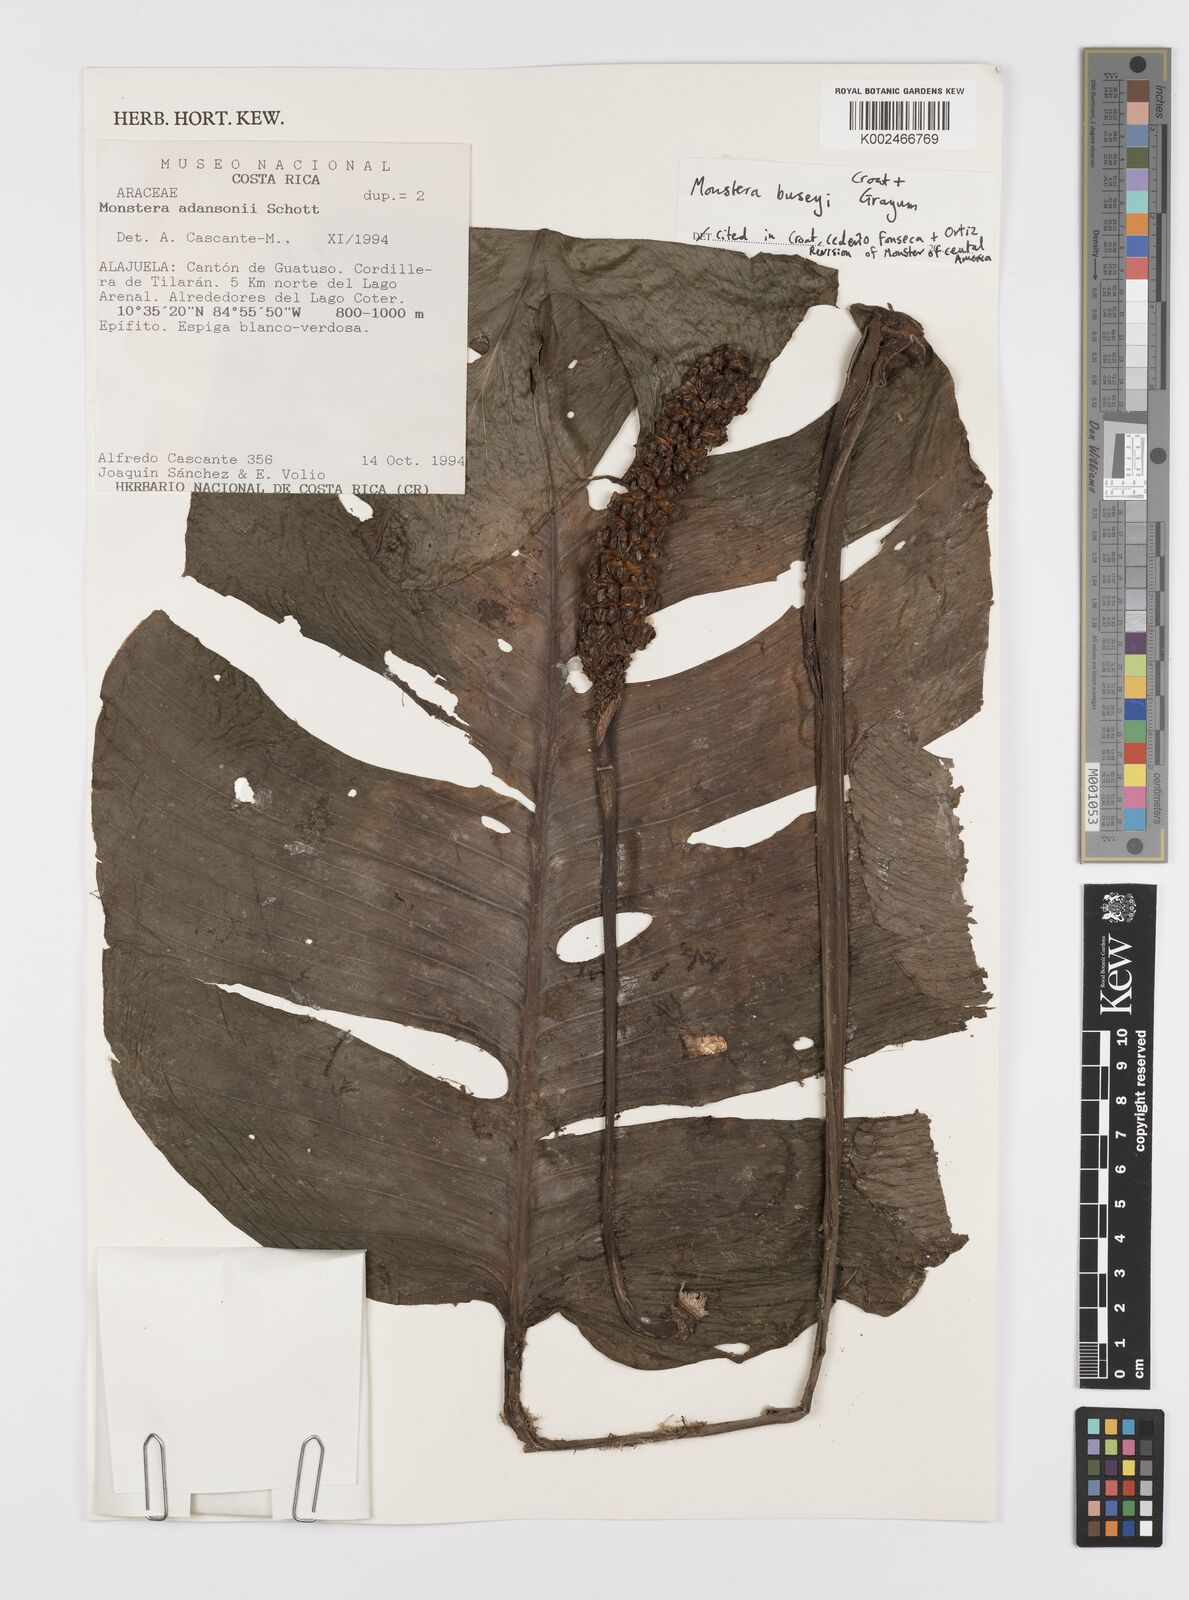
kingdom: Plantae
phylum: Tracheophyta
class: Liliopsida
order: Alismatales
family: Araceae
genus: Monstera
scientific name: Monstera buseyi
